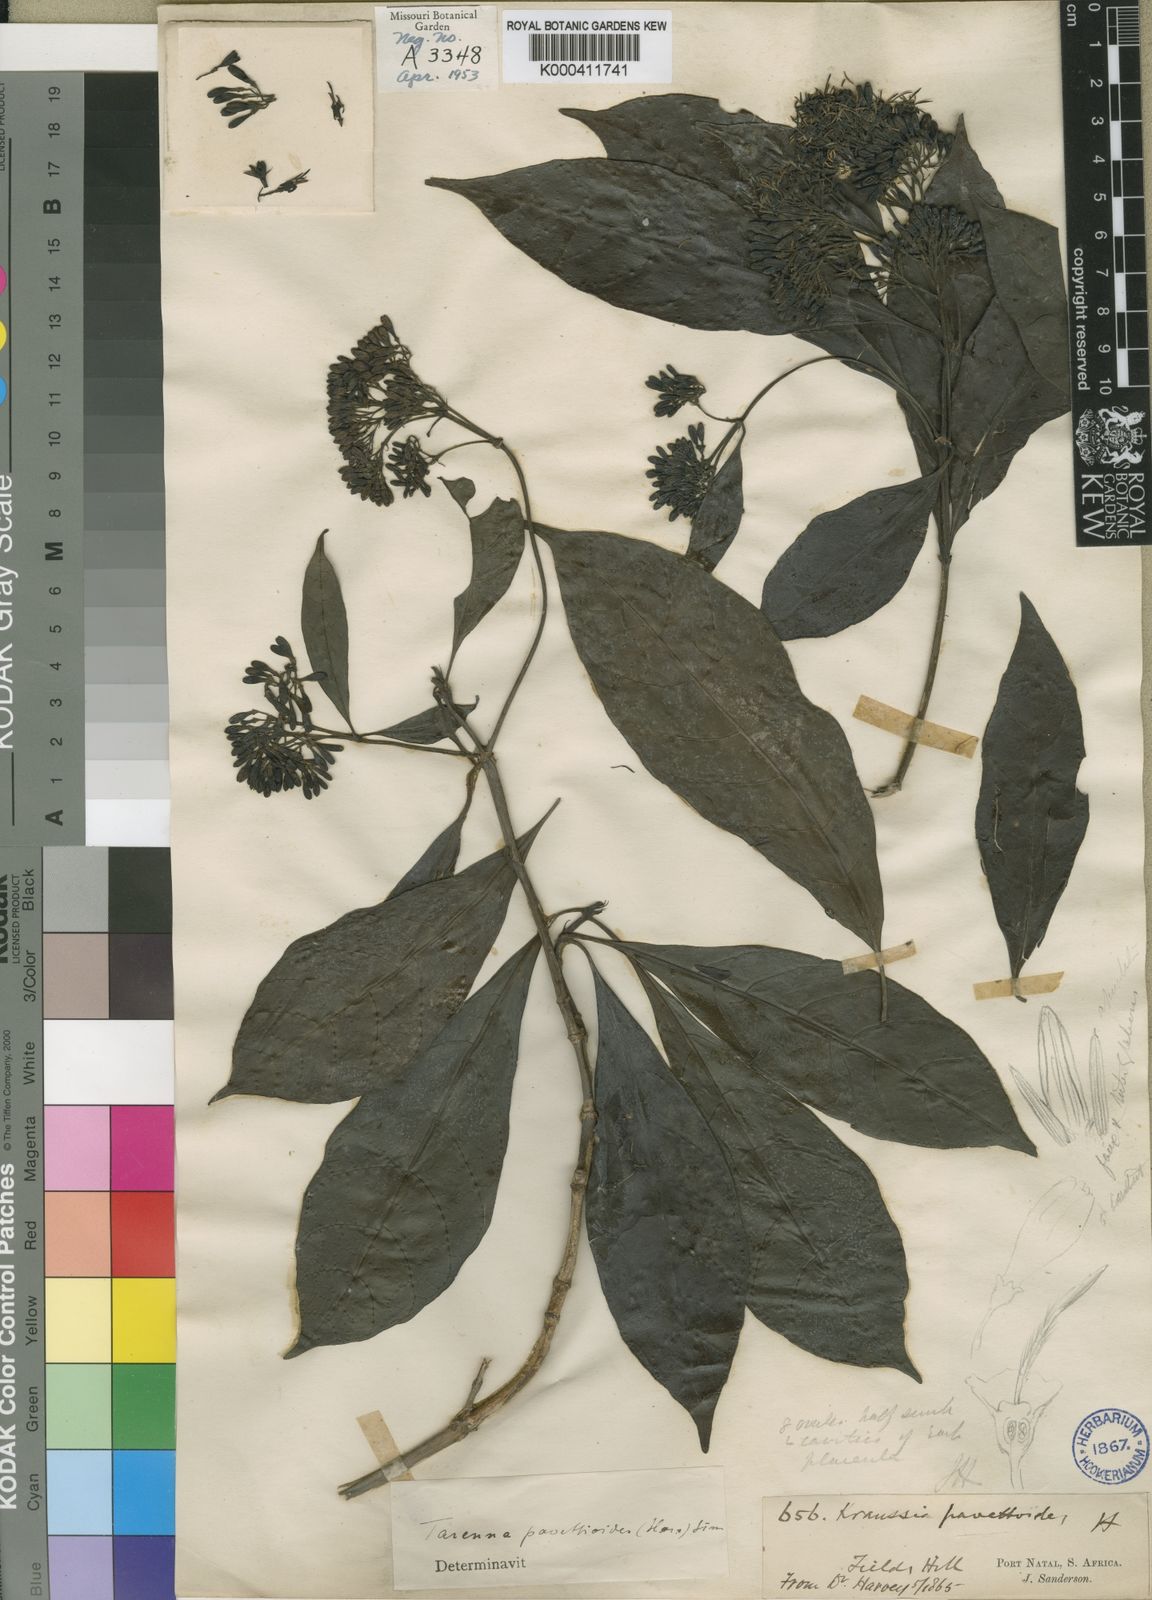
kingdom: Plantae
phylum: Tracheophyta
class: Magnoliopsida
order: Gentianales
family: Rubiaceae
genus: Tarenna
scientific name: Tarenna pavettoides
